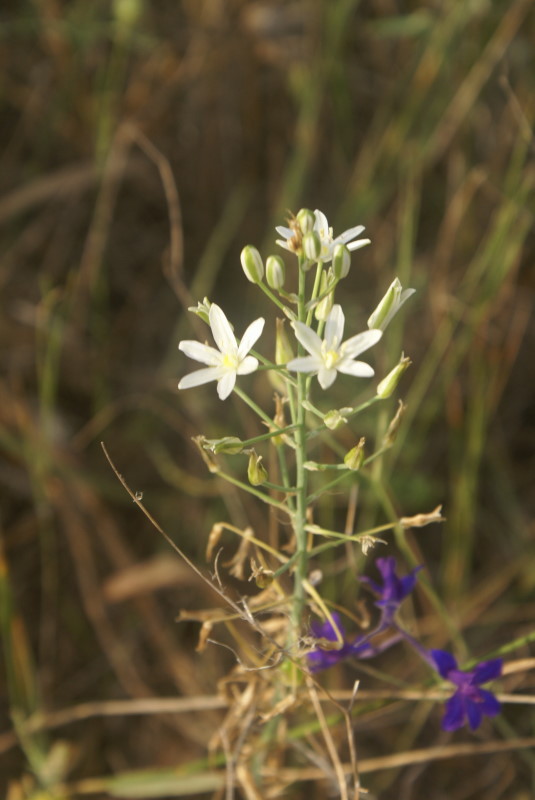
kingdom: Plantae
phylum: Tracheophyta
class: Liliopsida
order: Asparagales
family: Asparagaceae
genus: Ornithogalum
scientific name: Ornithogalum
